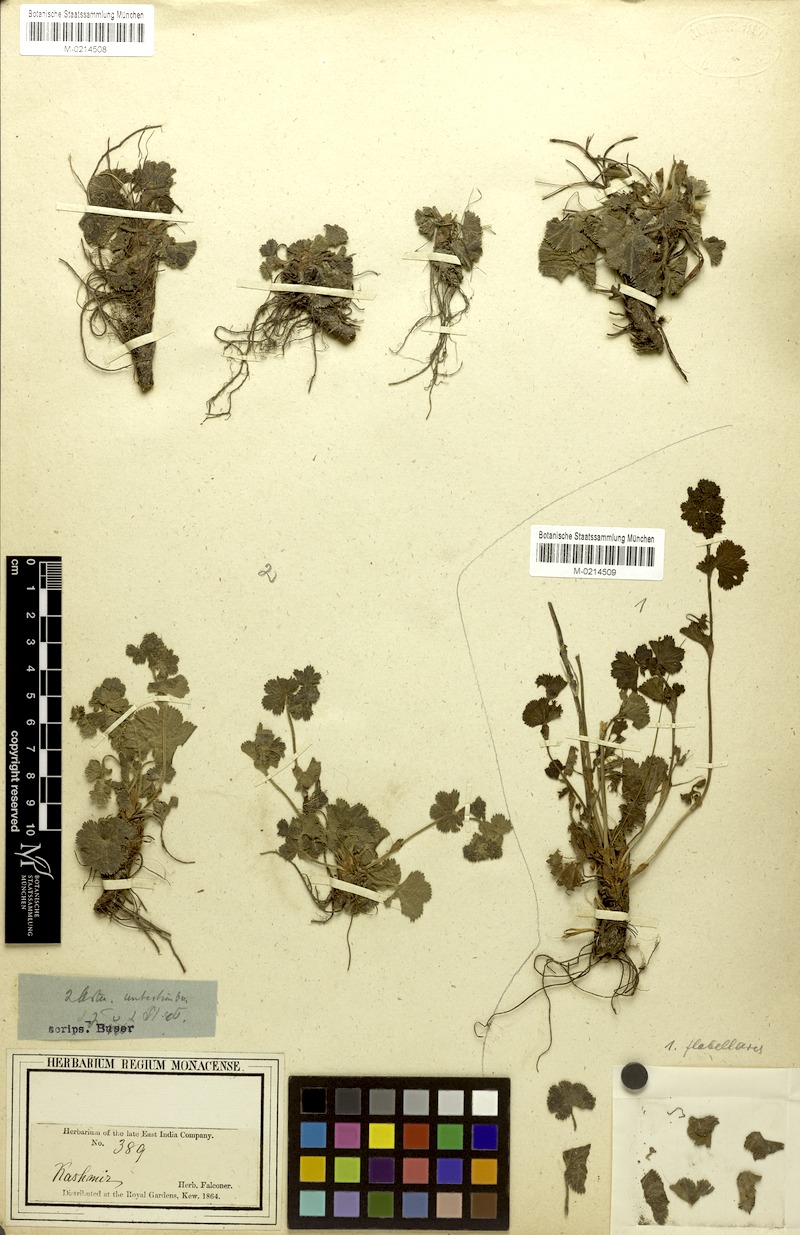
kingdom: Plantae
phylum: Tracheophyta
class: Magnoliopsida
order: Rosales
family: Rosaceae
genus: Alchemilla
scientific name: Alchemilla flabellata
